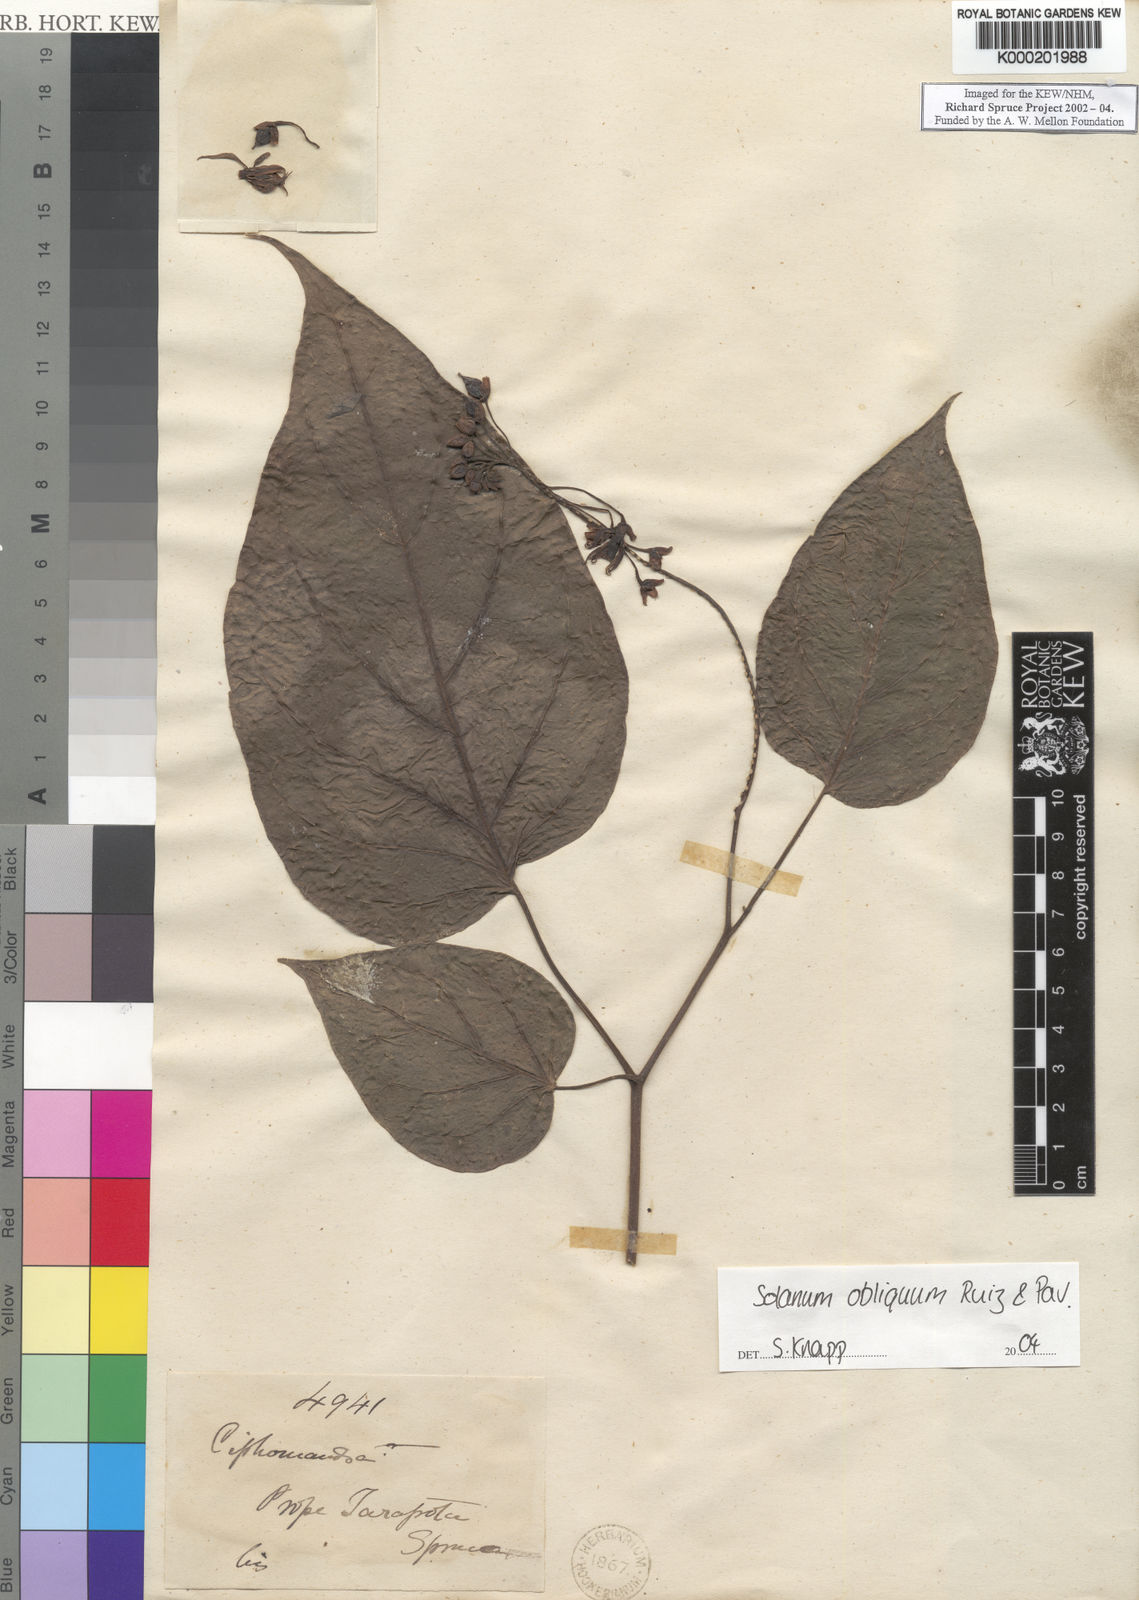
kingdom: Plantae
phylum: Tracheophyta
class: Magnoliopsida
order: Solanales
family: Solanaceae
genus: Solanum
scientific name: Solanum obliquum
